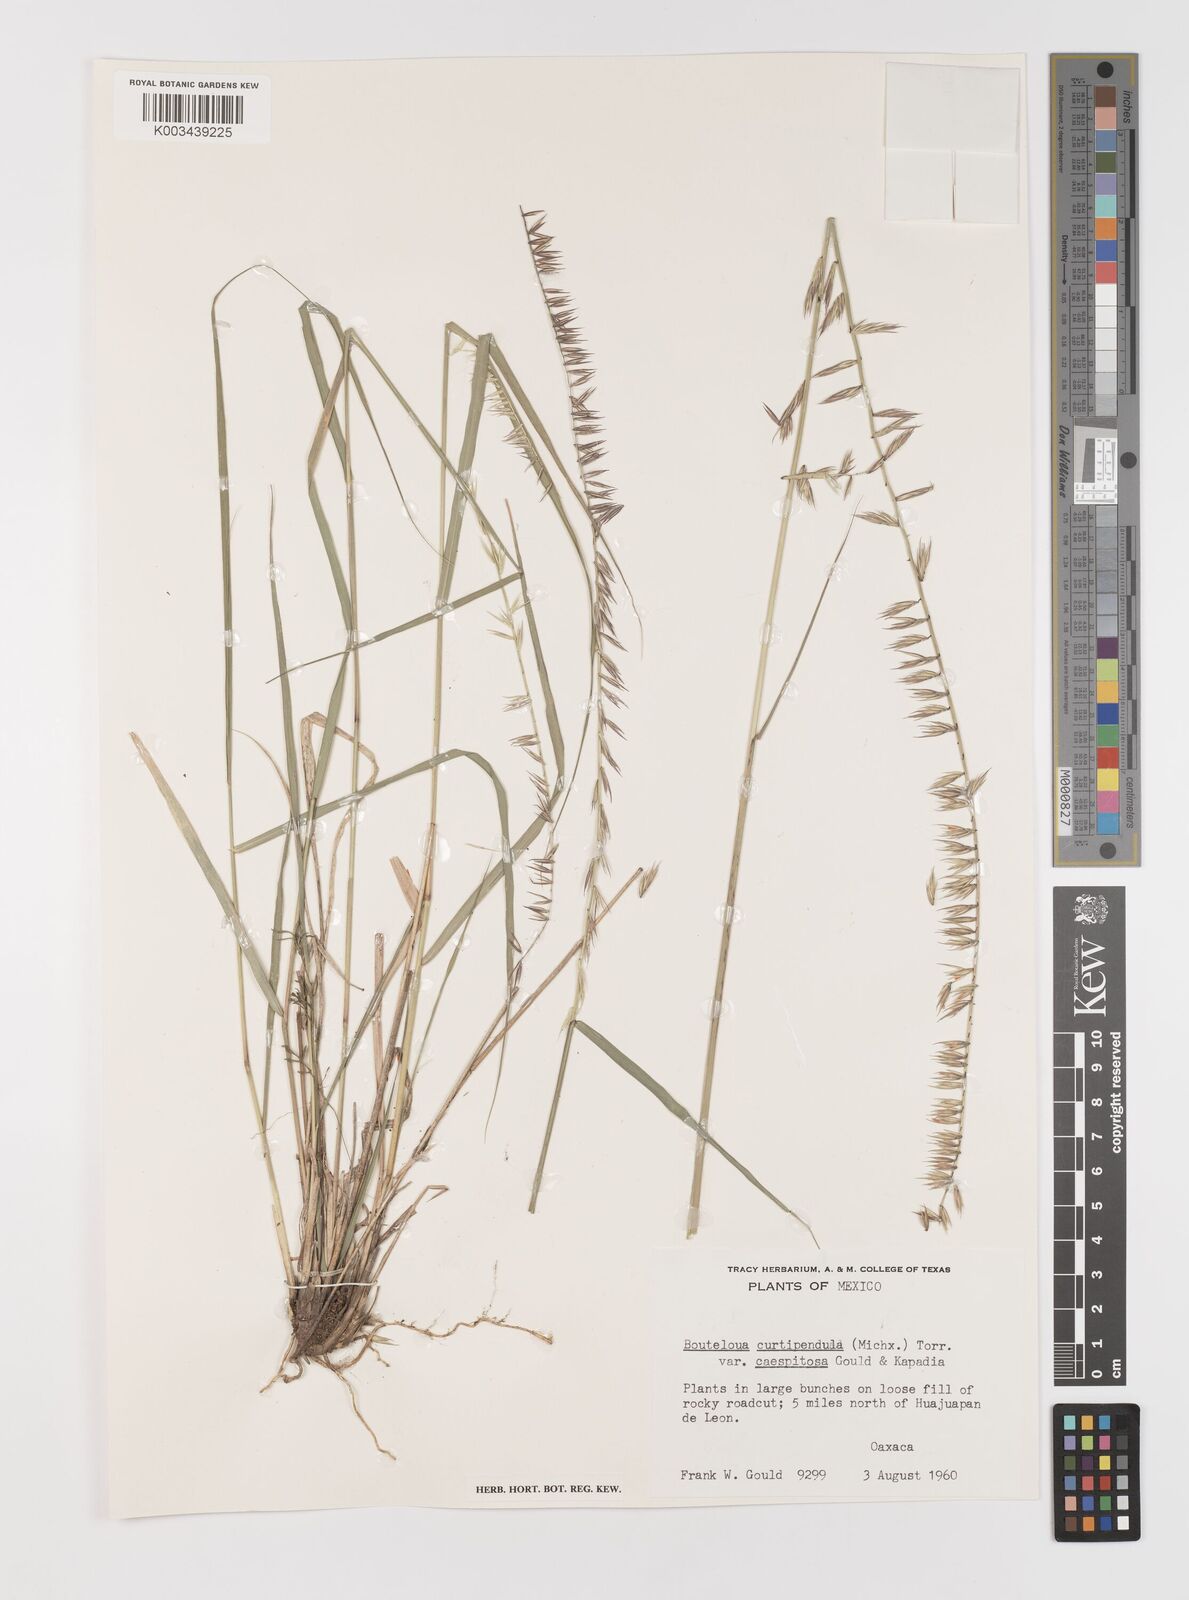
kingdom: Plantae
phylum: Tracheophyta
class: Liliopsida
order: Poales
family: Poaceae
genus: Bouteloua
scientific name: Bouteloua curtipendula
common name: Side-oats grama
